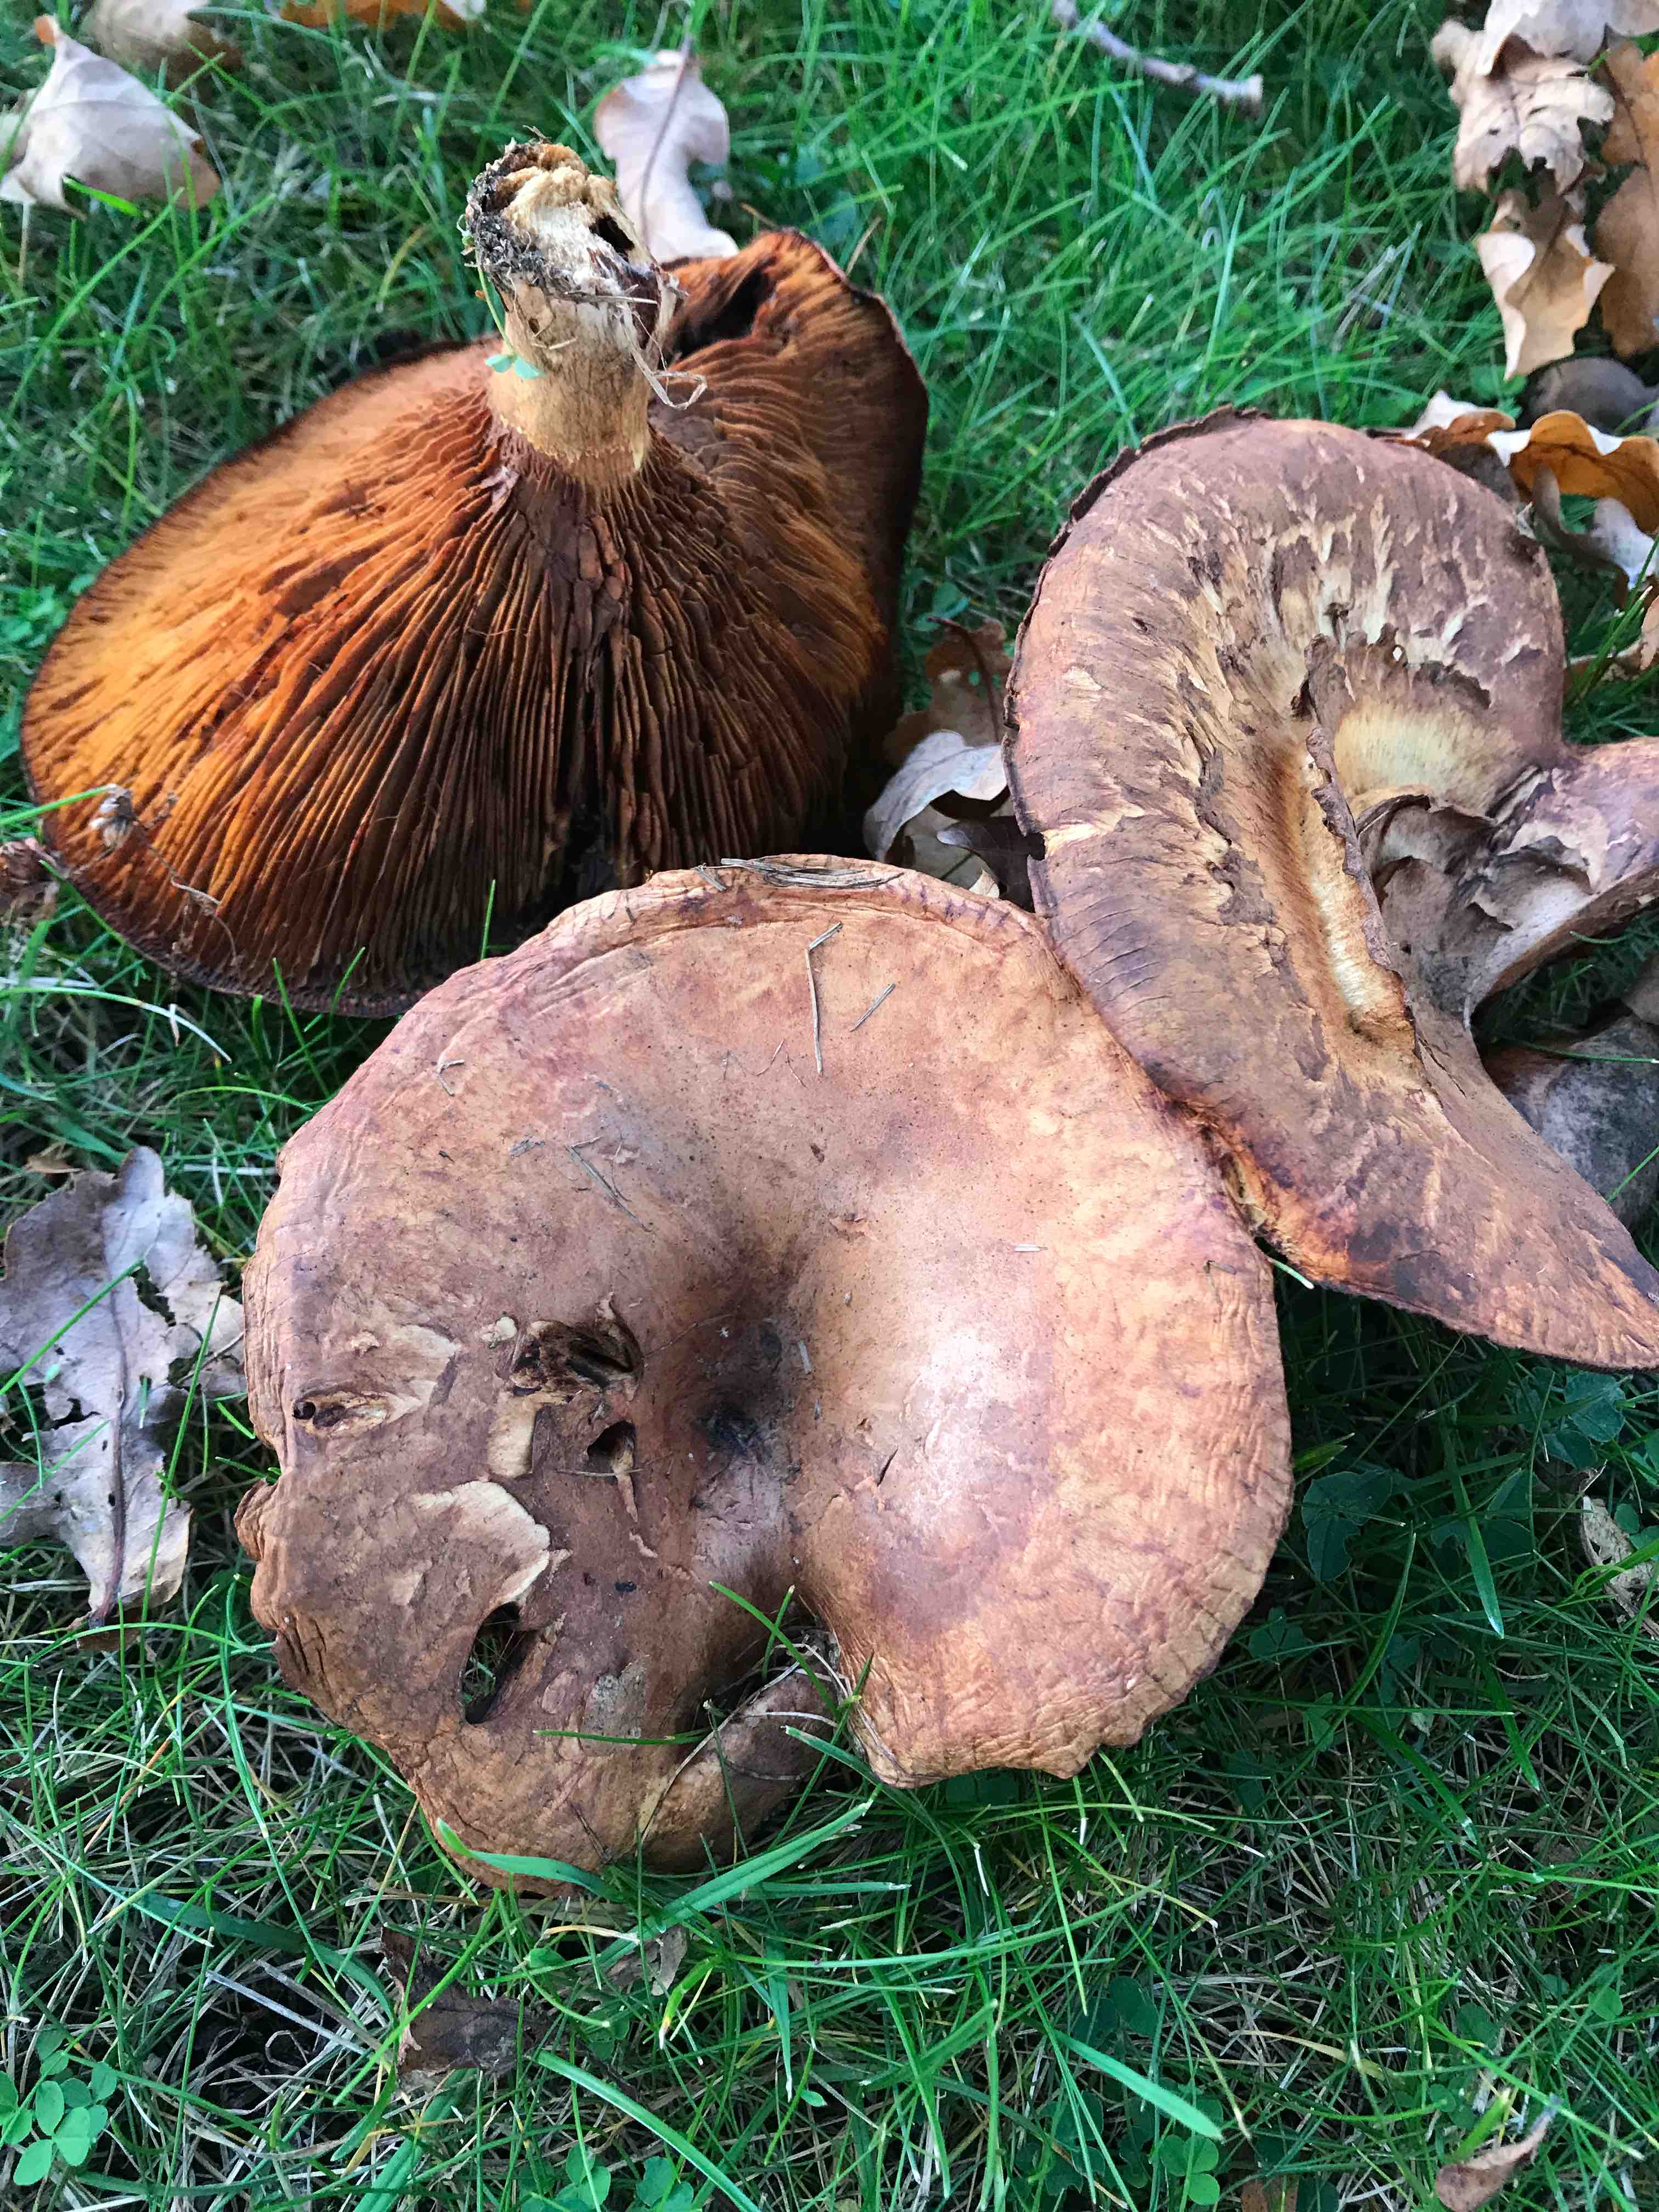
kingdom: Fungi
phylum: Basidiomycota
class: Agaricomycetes
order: Boletales
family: Paxillaceae
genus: Paxillus
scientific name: Paxillus
